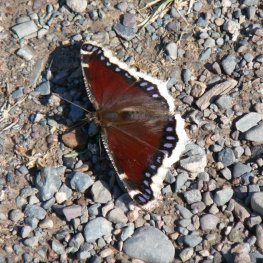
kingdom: Animalia
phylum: Arthropoda
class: Insecta
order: Lepidoptera
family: Nymphalidae
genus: Nymphalis
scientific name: Nymphalis antiopa
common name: Mourning Cloak
